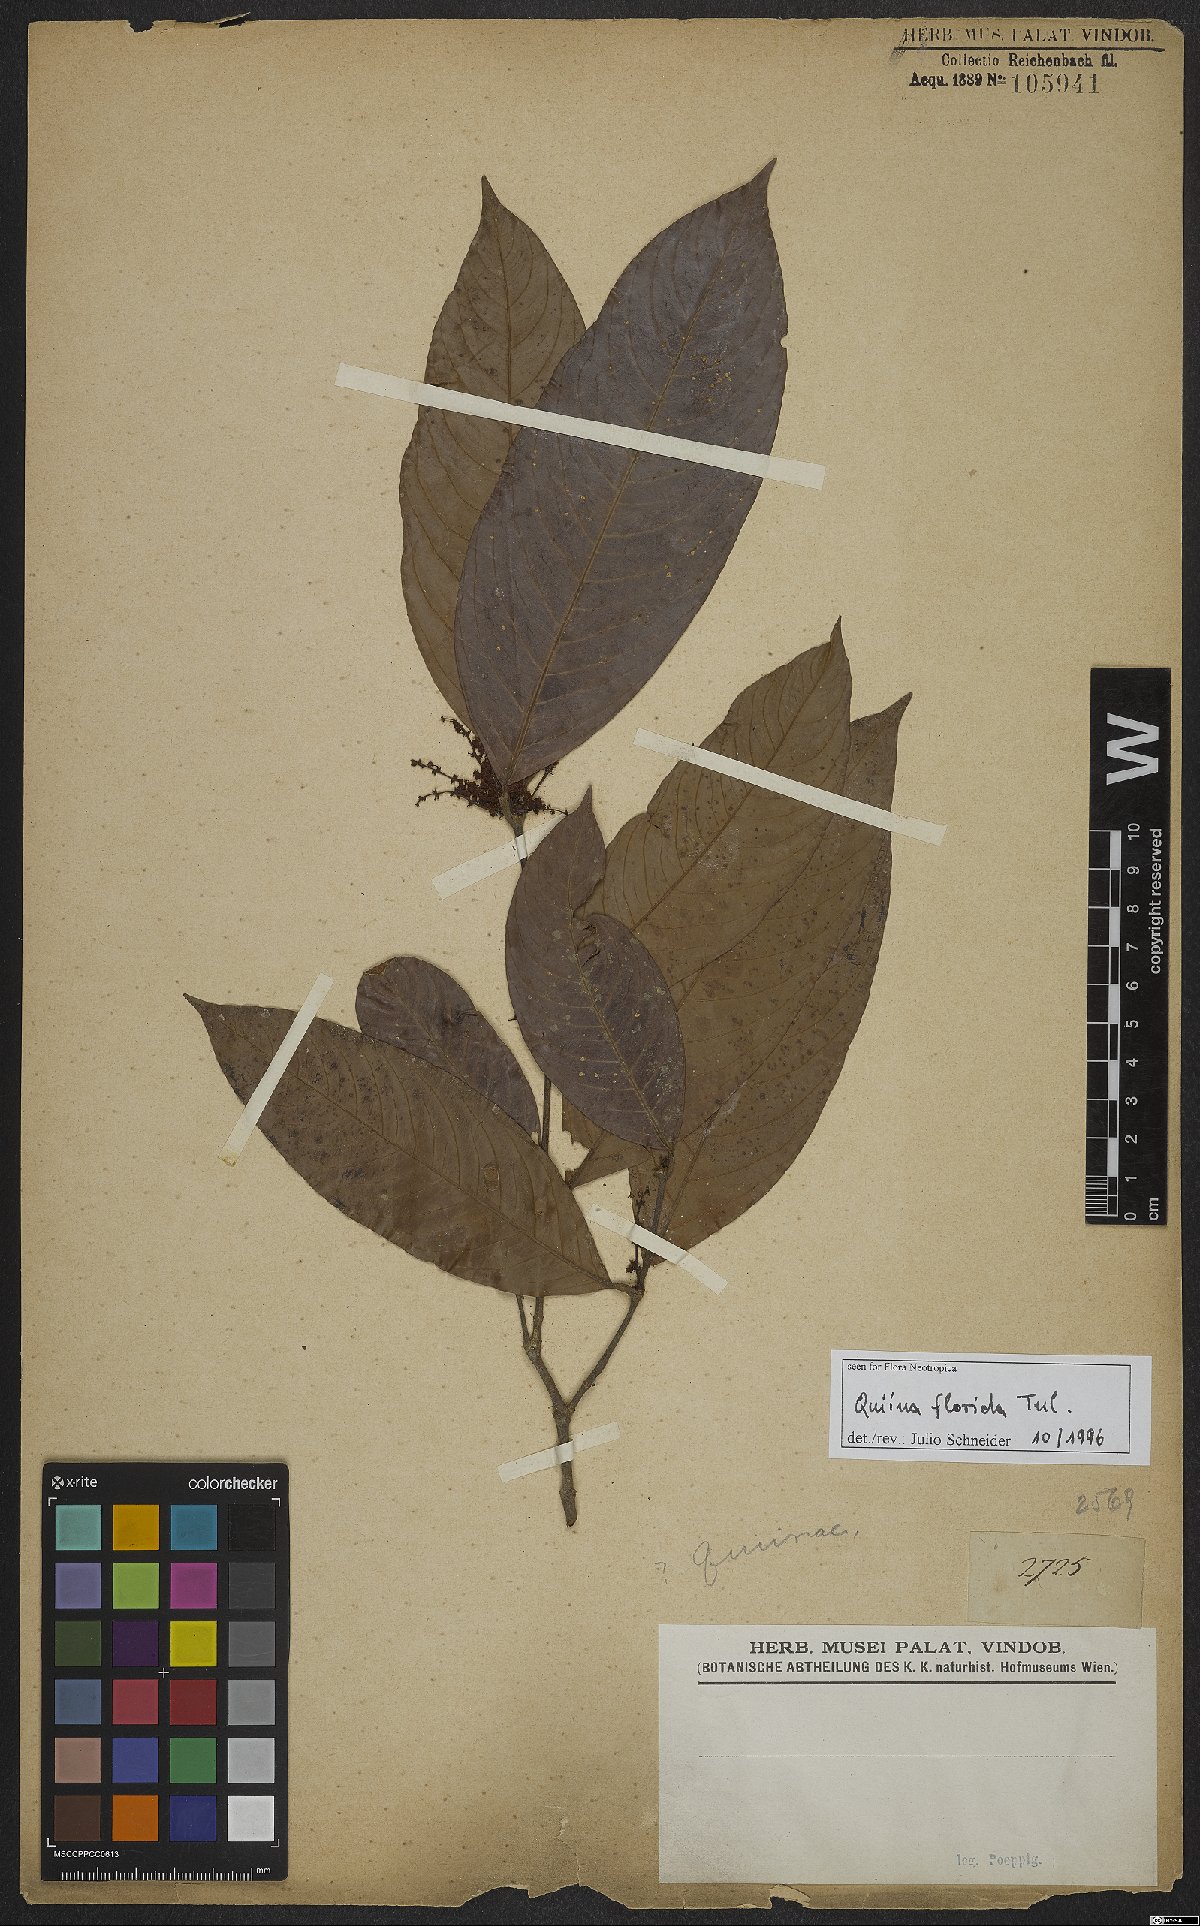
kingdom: Plantae
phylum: Tracheophyta
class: Magnoliopsida
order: Malpighiales
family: Quiinaceae
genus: Quiina
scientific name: Quiina florida
